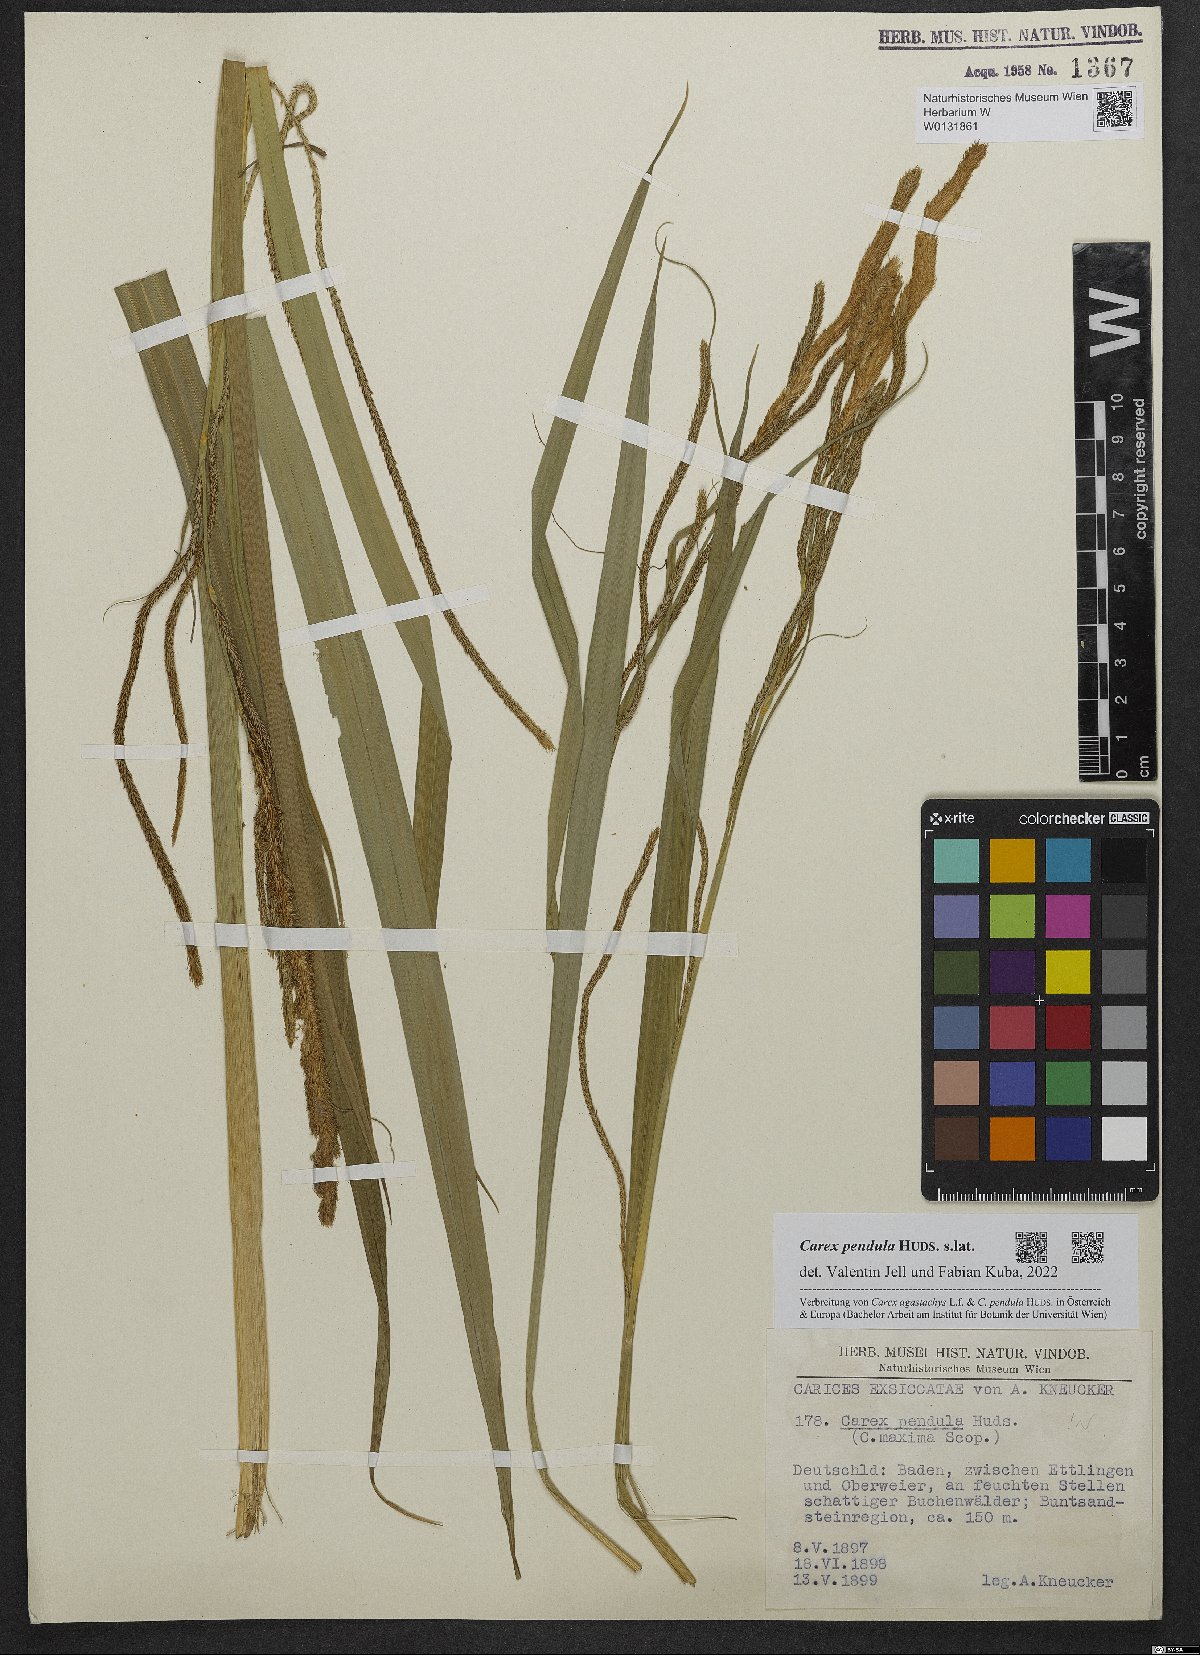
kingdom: Plantae
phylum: Tracheophyta
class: Liliopsida
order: Poales
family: Cyperaceae
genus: Carex
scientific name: Carex pendula
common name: Pendulous sedge
